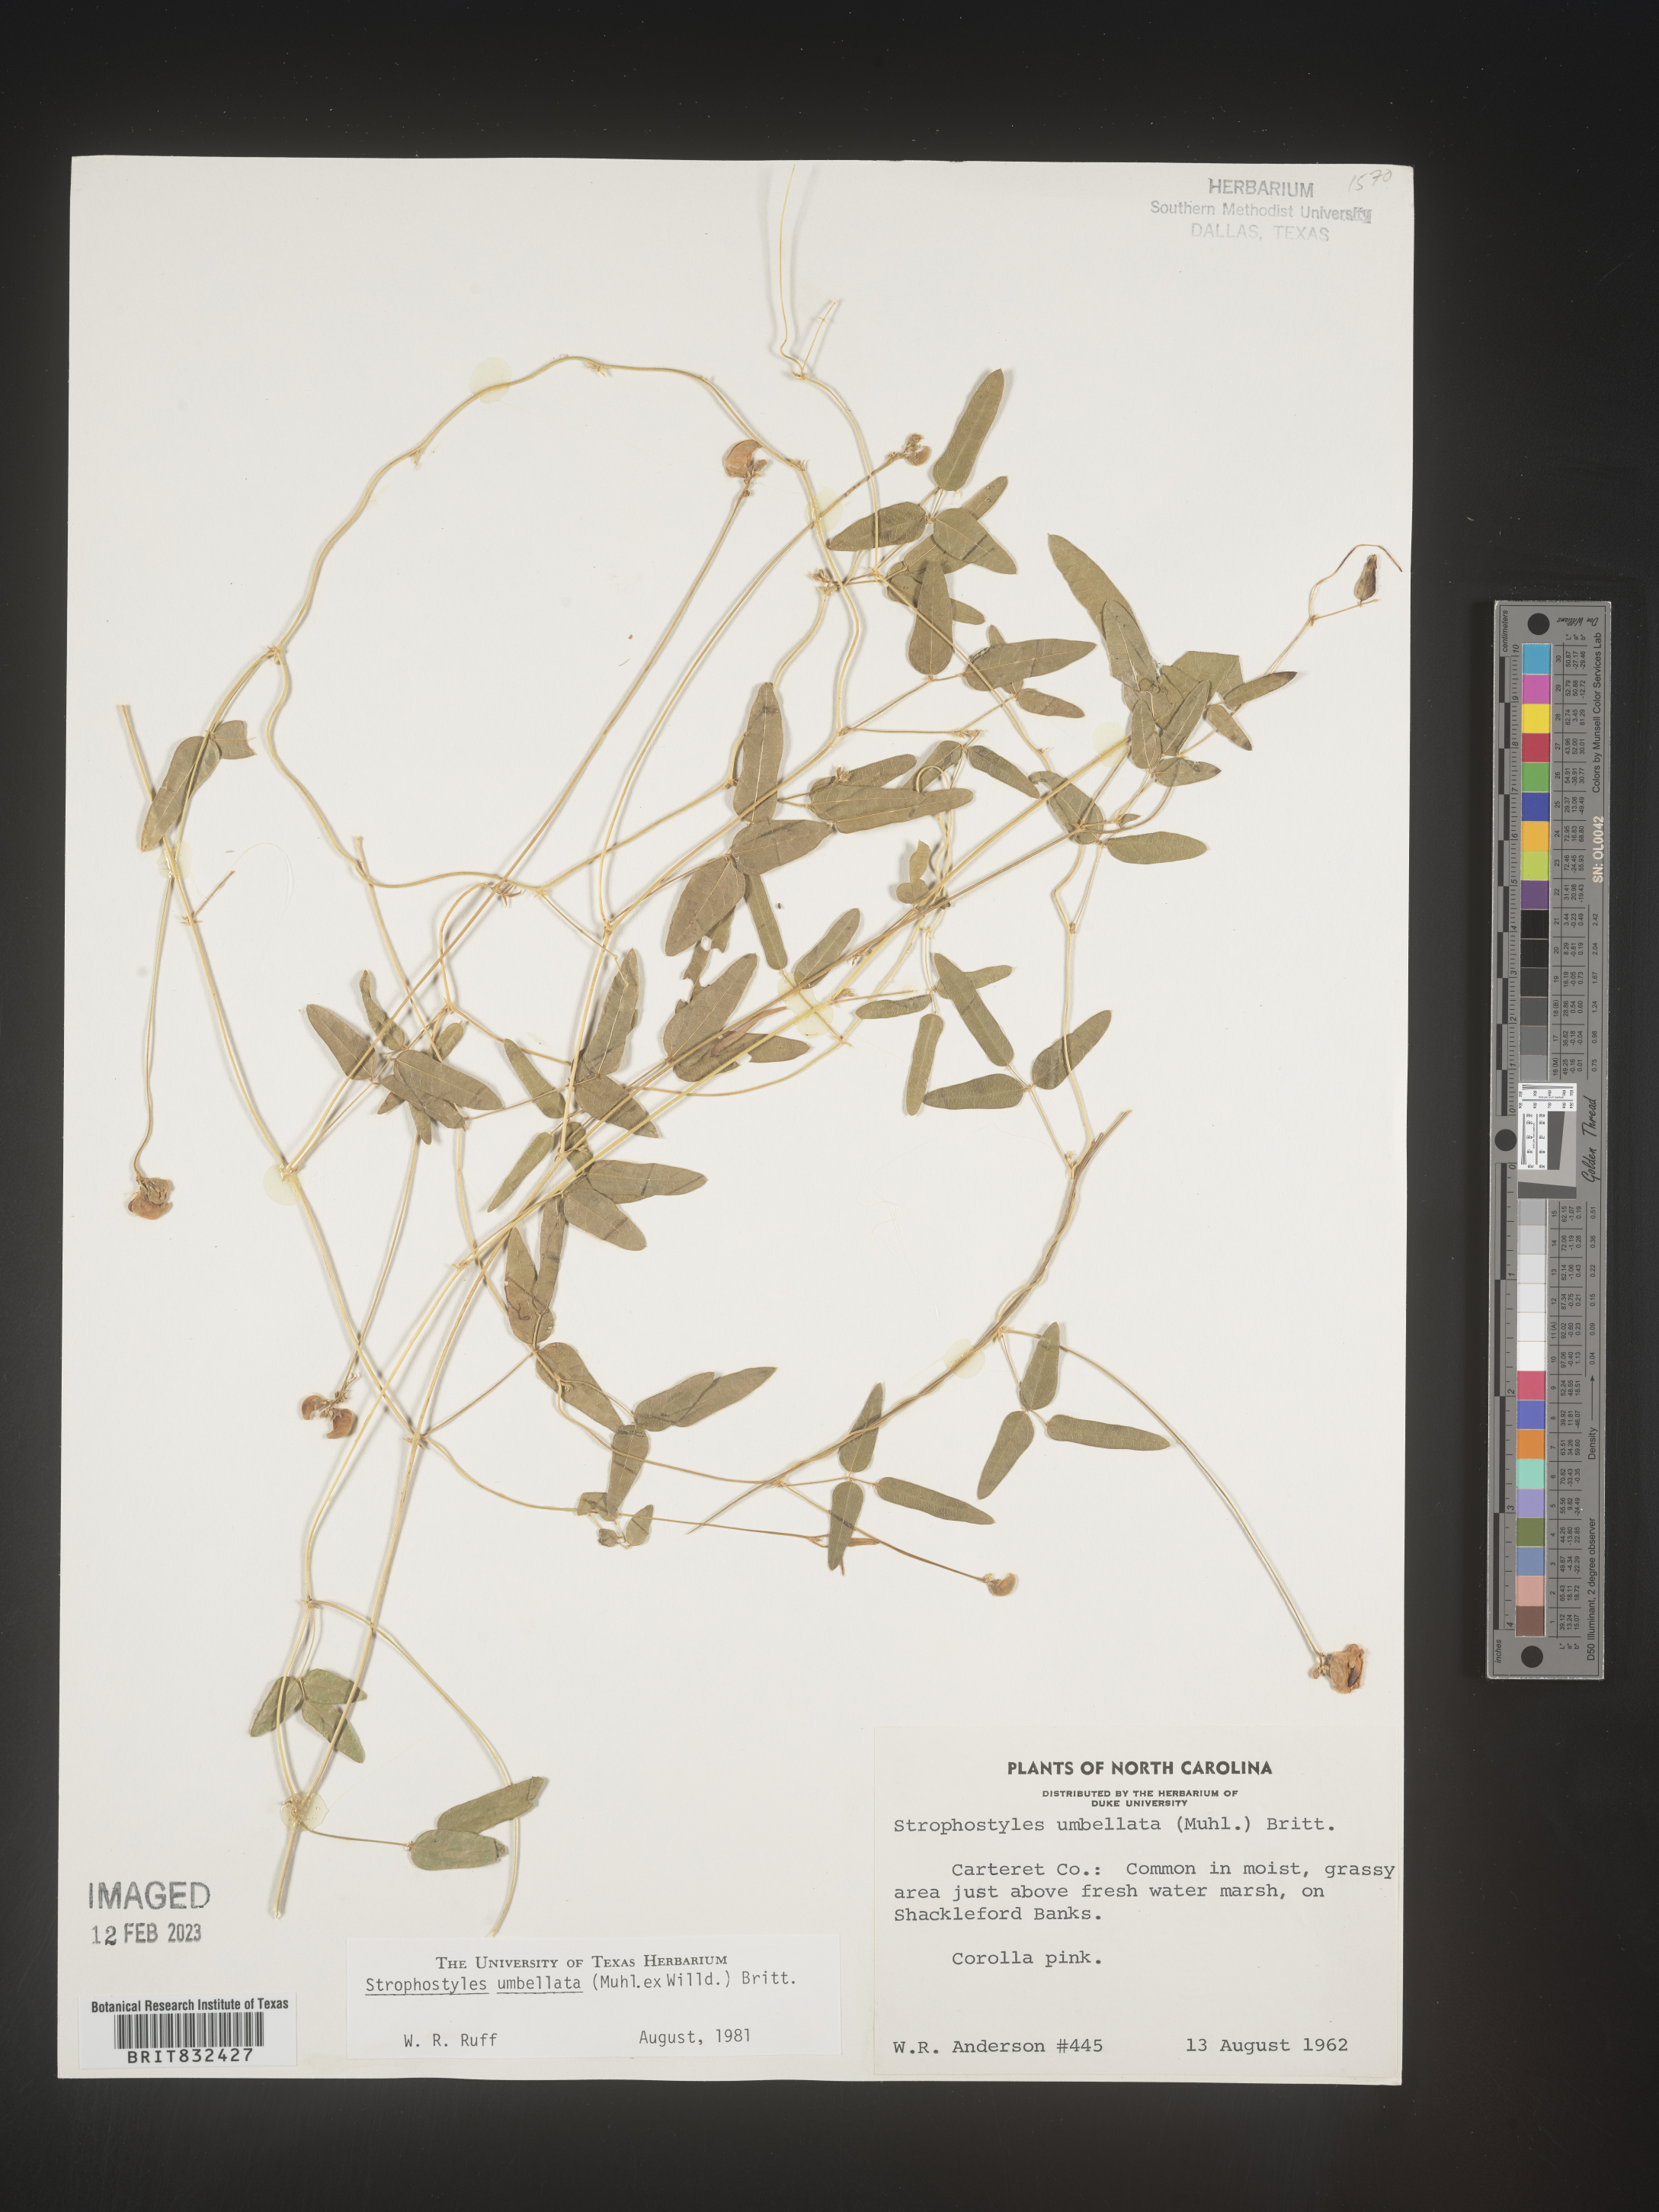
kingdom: Plantae
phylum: Tracheophyta
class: Magnoliopsida
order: Fabales
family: Fabaceae
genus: Strophostyles
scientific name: Strophostyles umbellata
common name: Perennial wild bean
